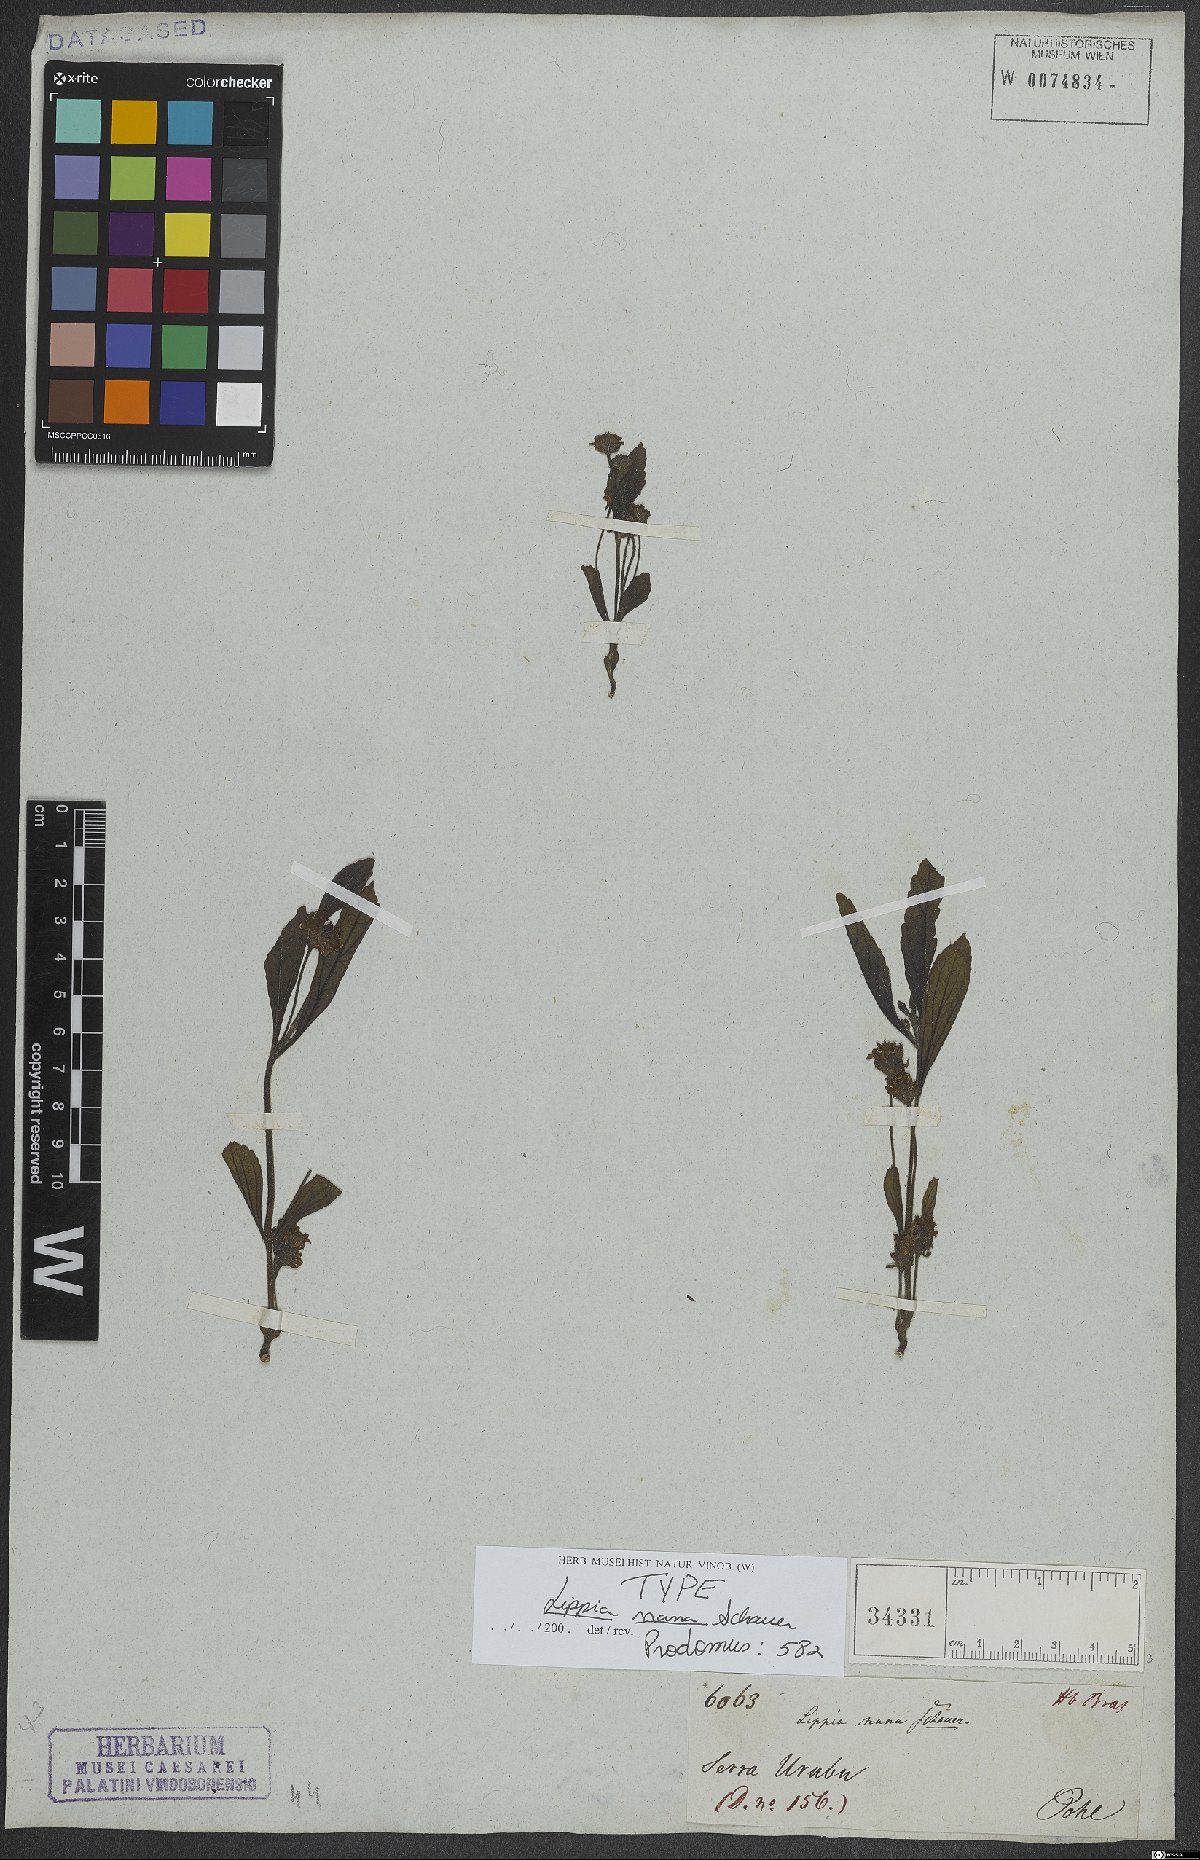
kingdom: Plantae
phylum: Tracheophyta
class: Magnoliopsida
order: Lamiales
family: Verbenaceae
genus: Lippia
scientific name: Lippia pumila
